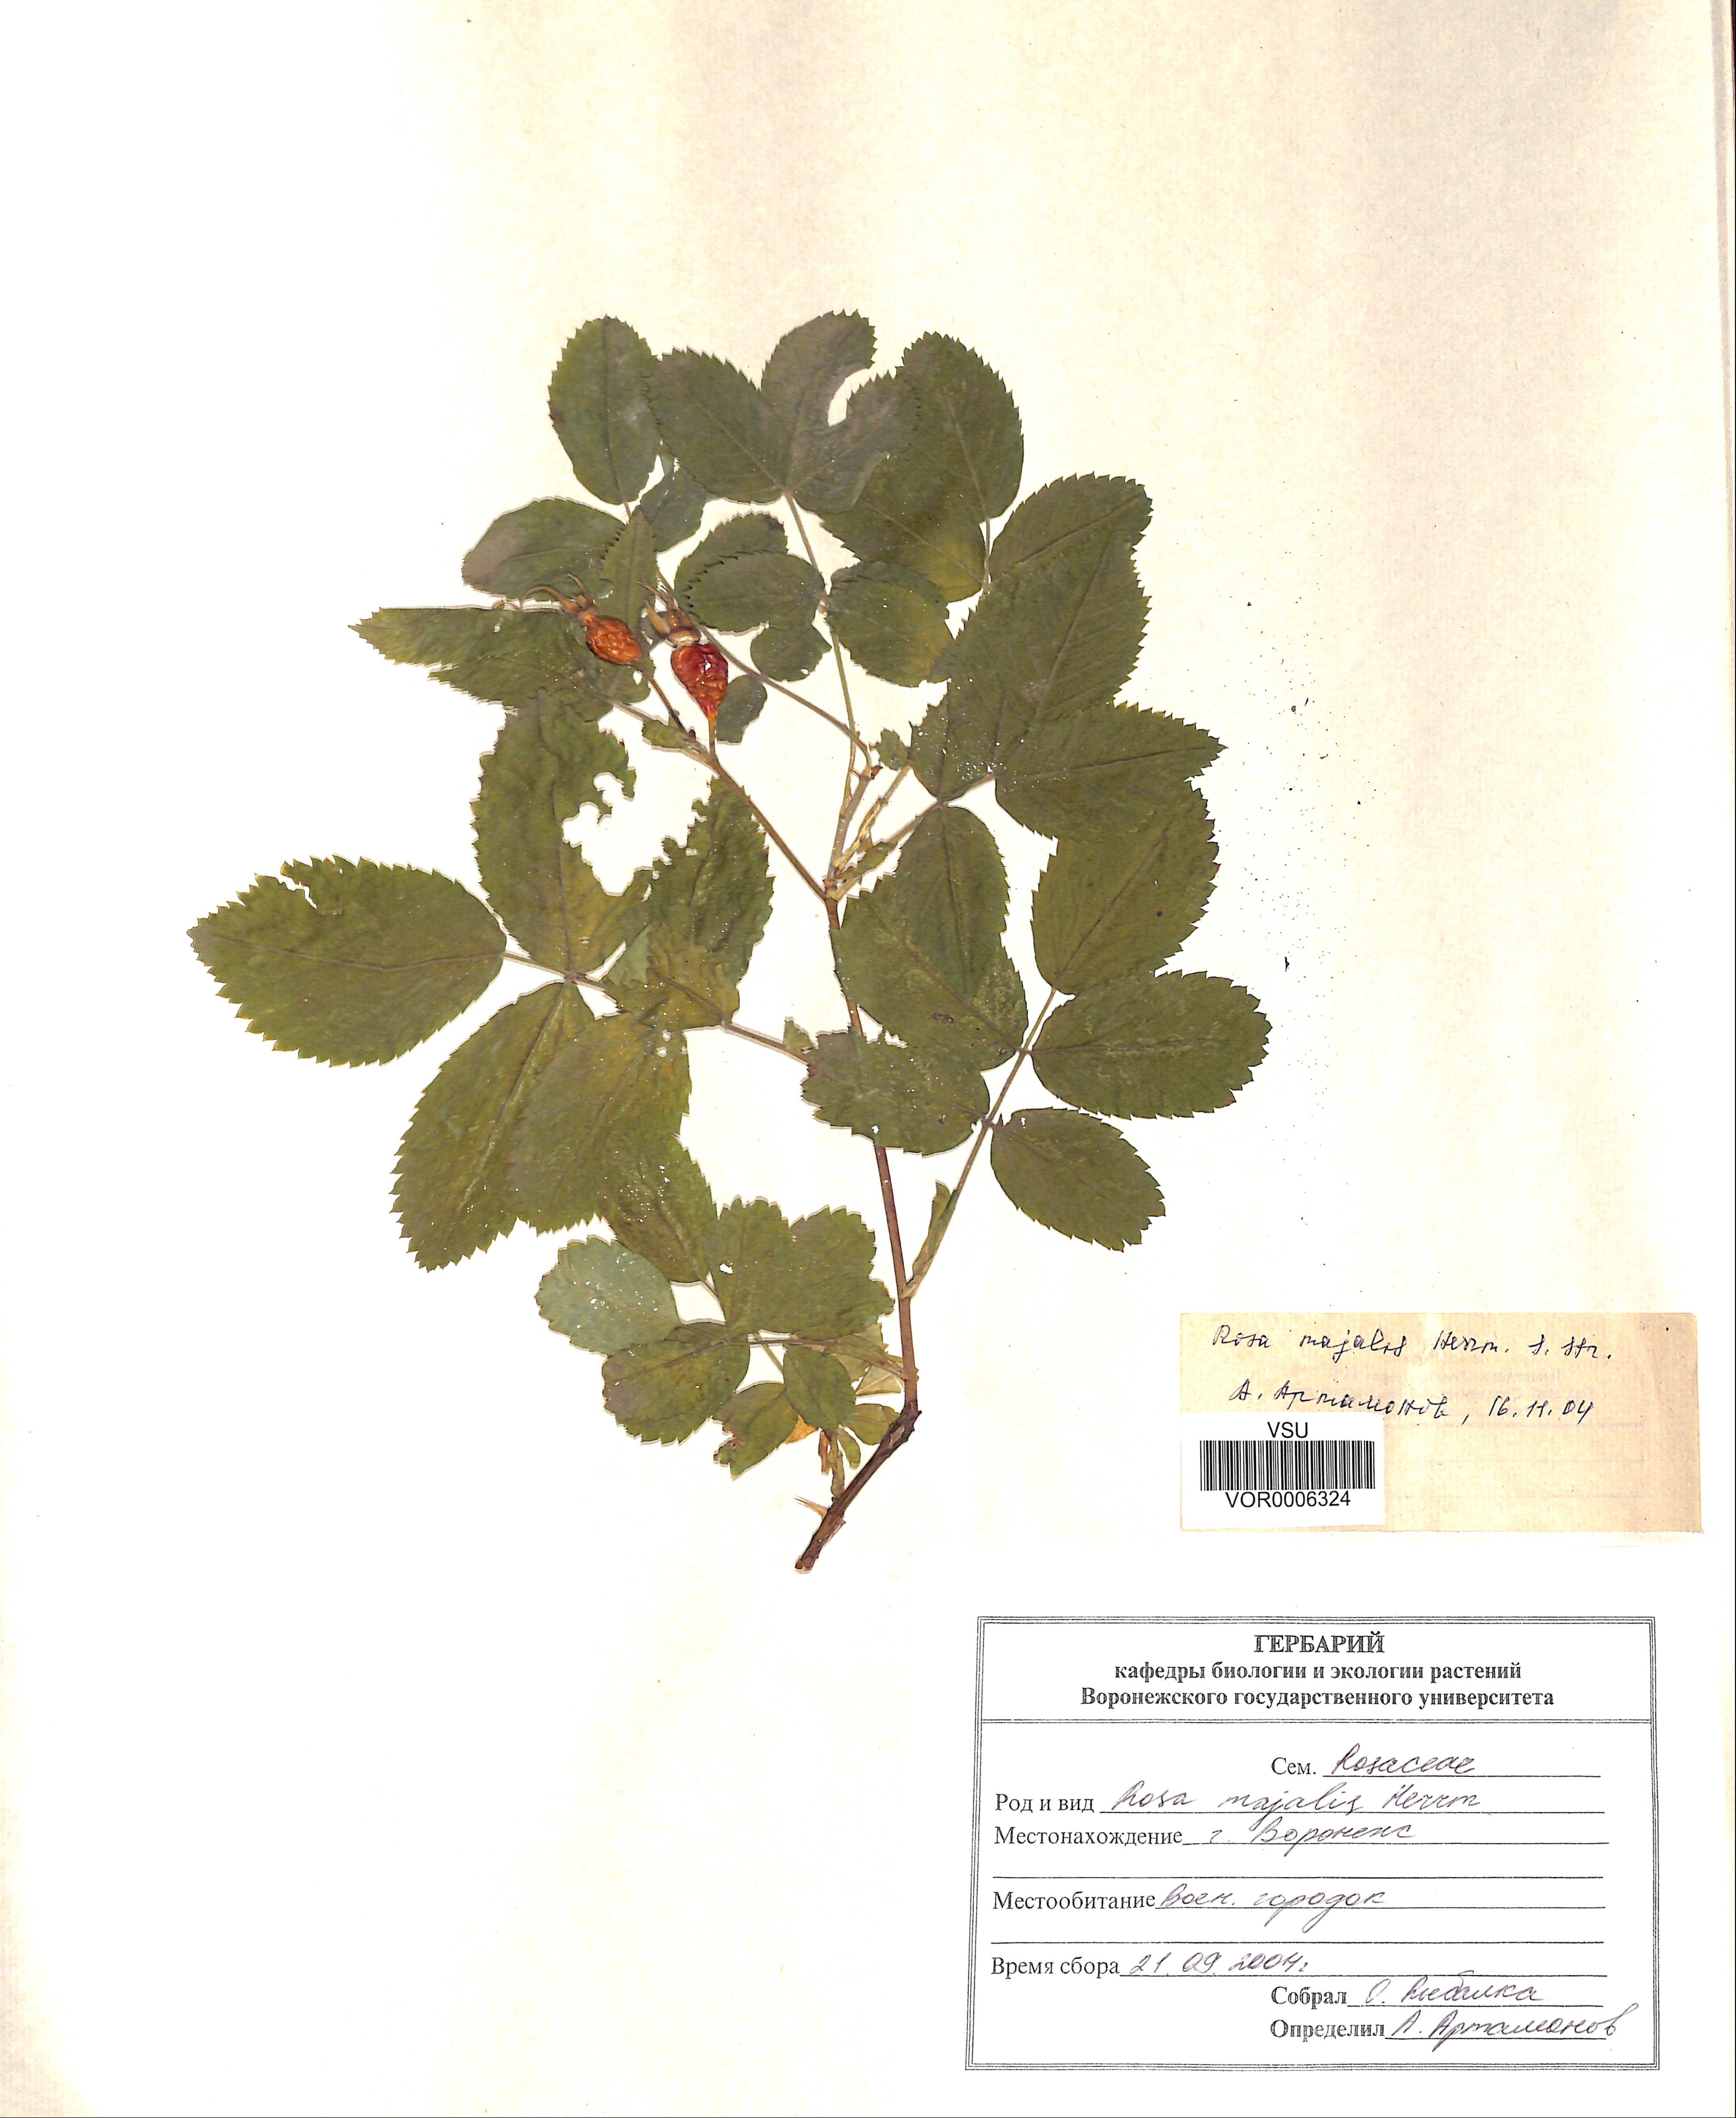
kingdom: Plantae
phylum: Tracheophyta
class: Magnoliopsida
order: Rosales
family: Rosaceae
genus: Rosa
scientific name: Rosa majalis
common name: Cinnamon rose
